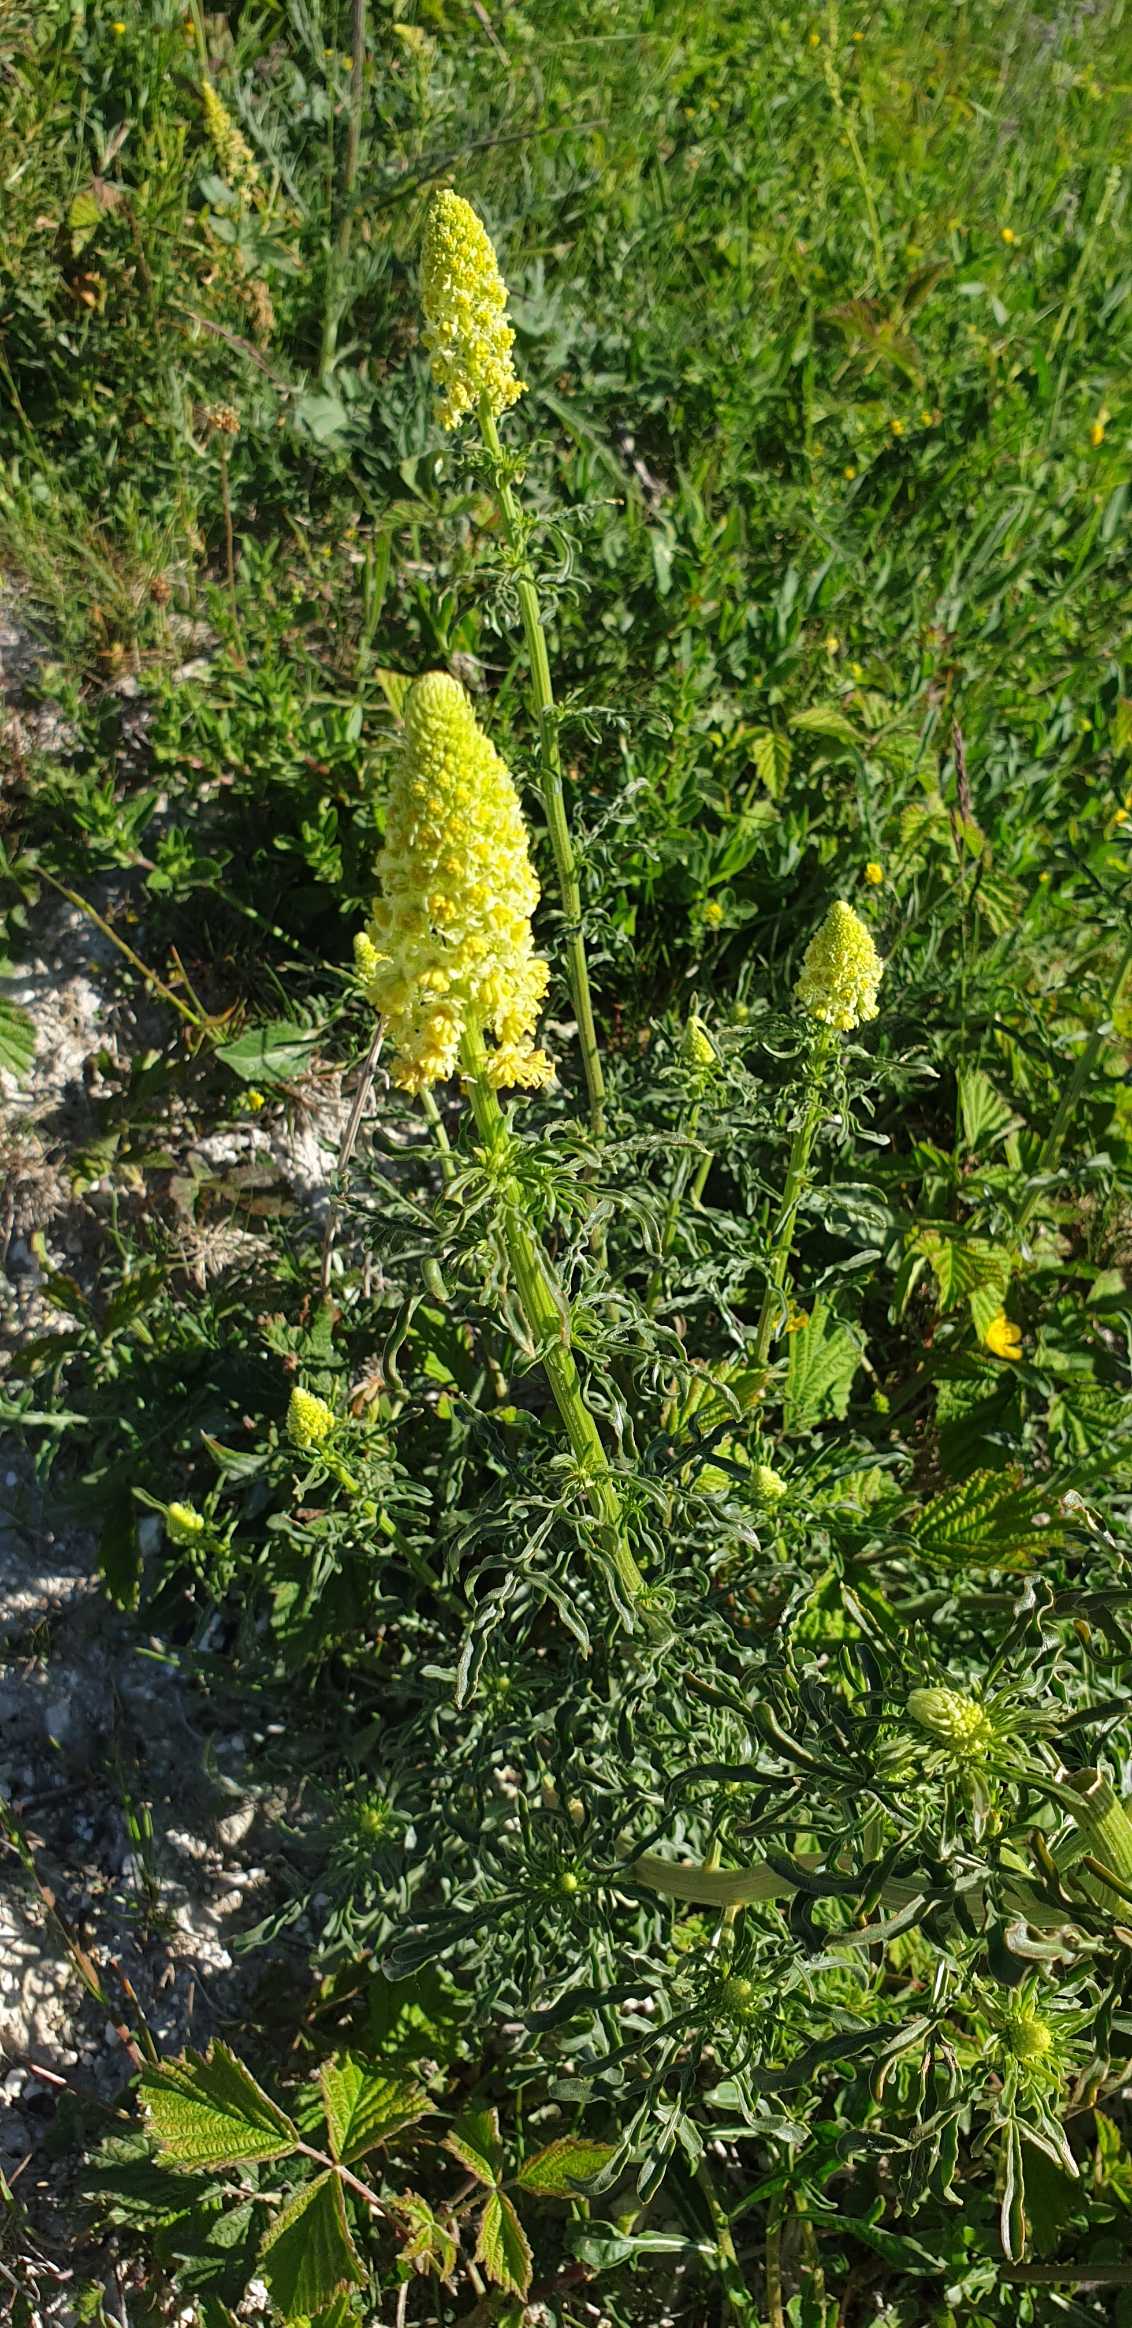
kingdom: Plantae
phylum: Tracheophyta
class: Magnoliopsida
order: Brassicales
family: Resedaceae
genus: Reseda
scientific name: Reseda lutea
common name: Gul reseda
